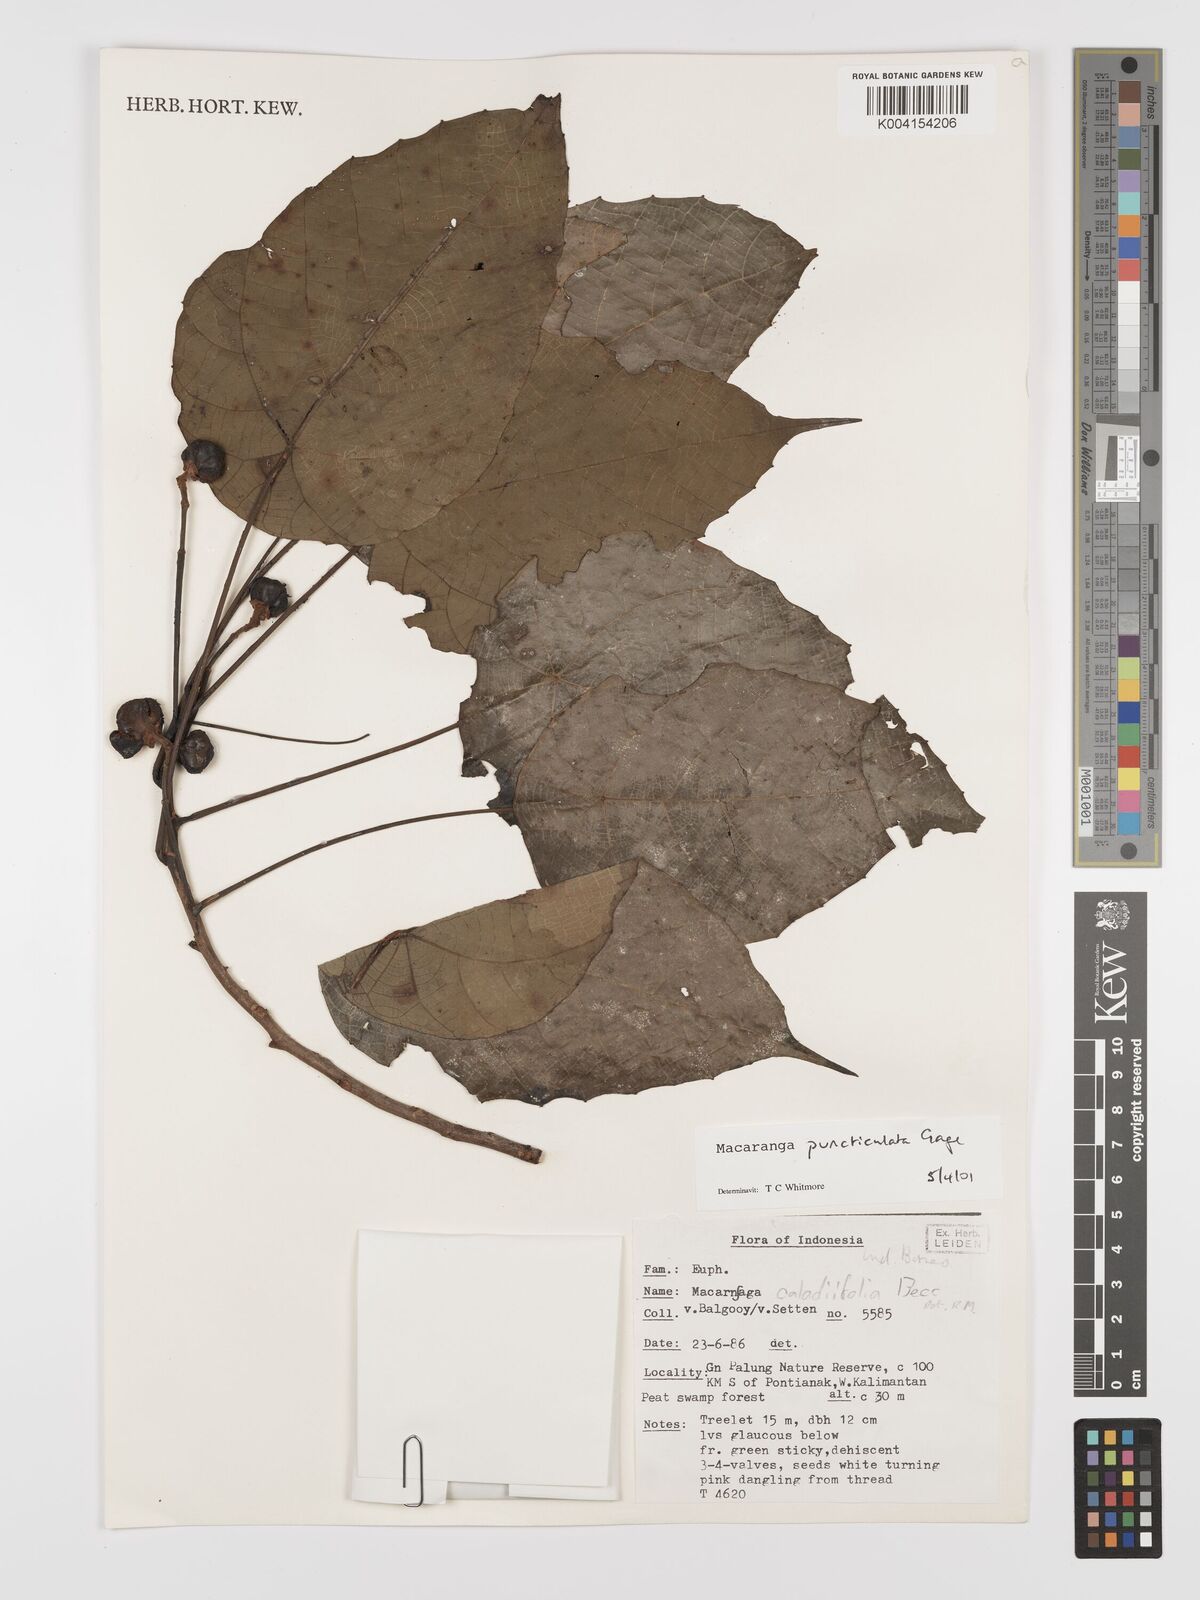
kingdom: Plantae
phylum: Tracheophyta
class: Magnoliopsida
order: Malpighiales
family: Euphorbiaceae
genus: Macaranga
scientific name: Macaranga puncticulata
